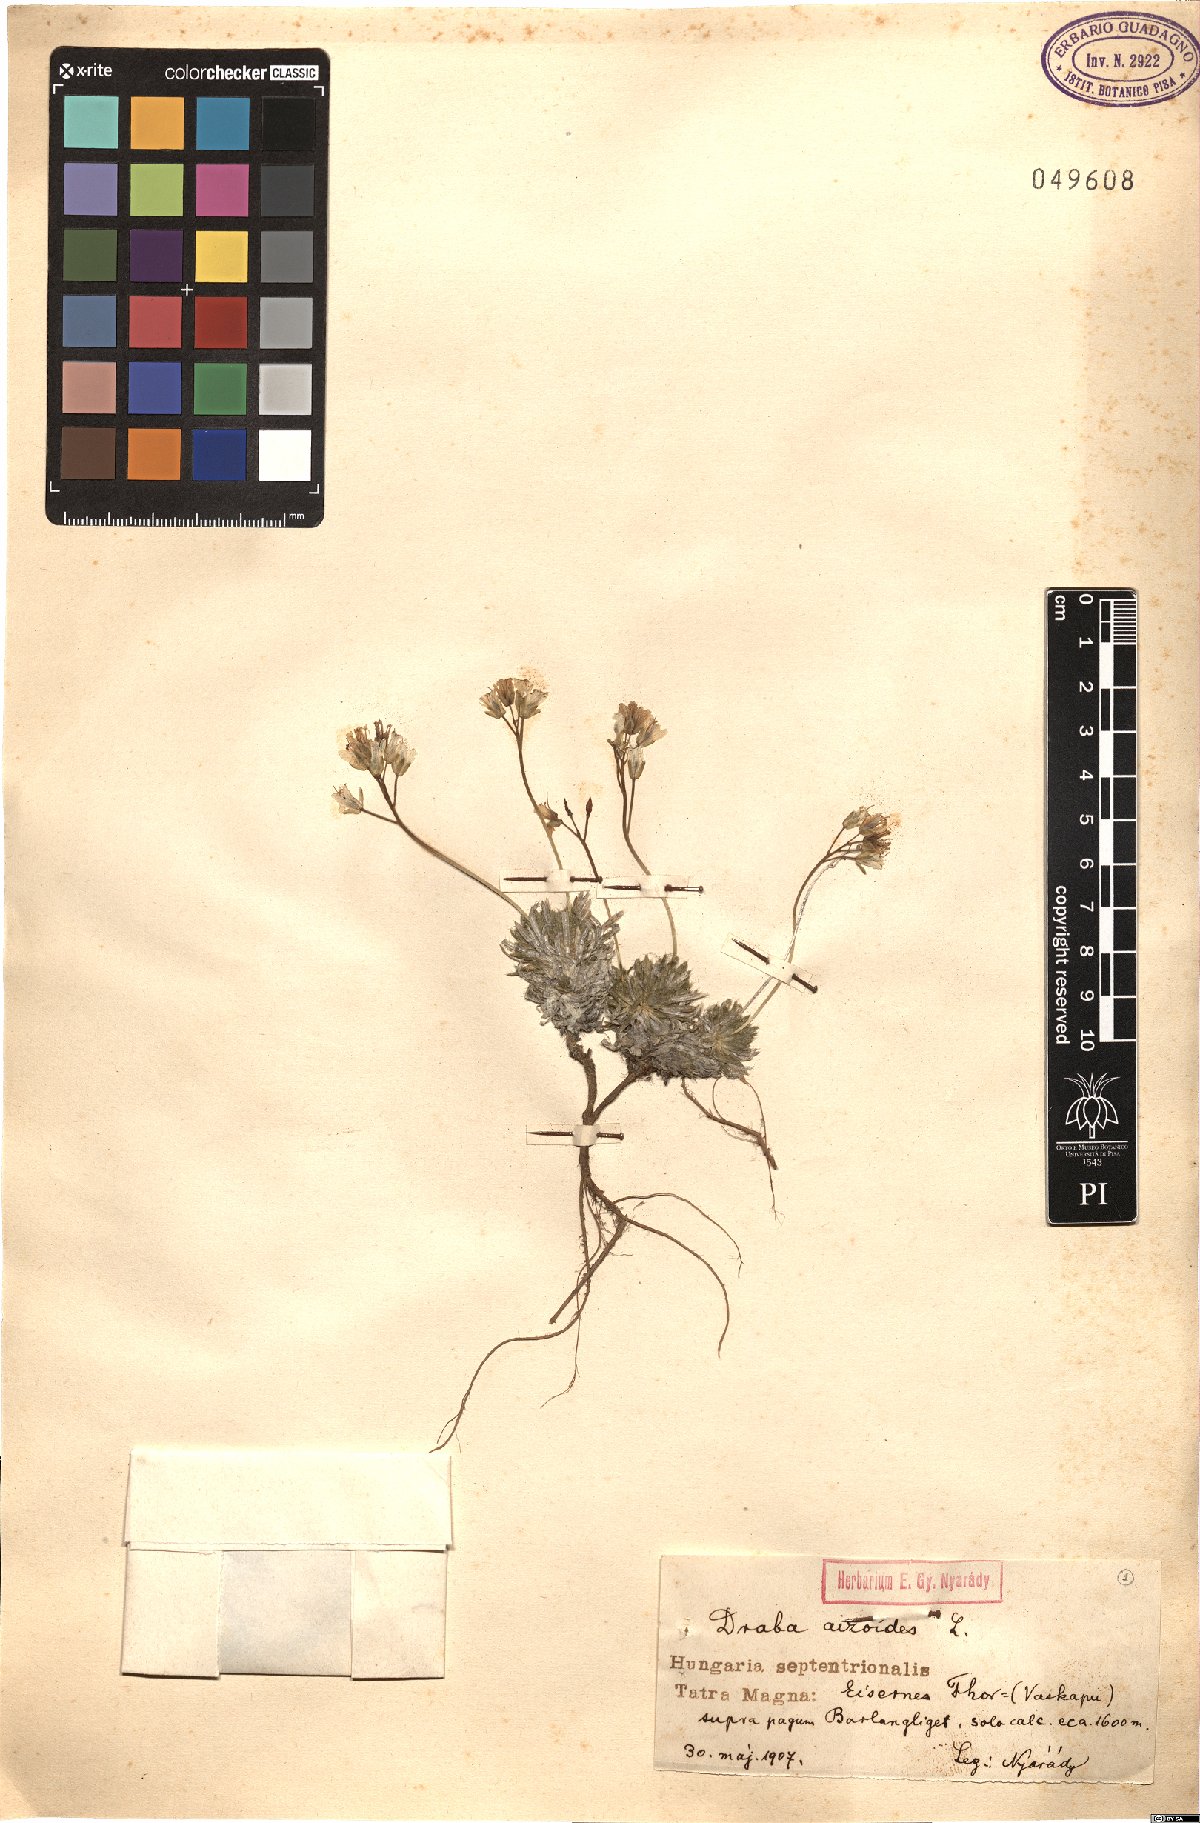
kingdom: Plantae
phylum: Tracheophyta
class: Magnoliopsida
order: Brassicales
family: Brassicaceae
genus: Draba
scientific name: Draba aizoides
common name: Yellow whitlowgrass
